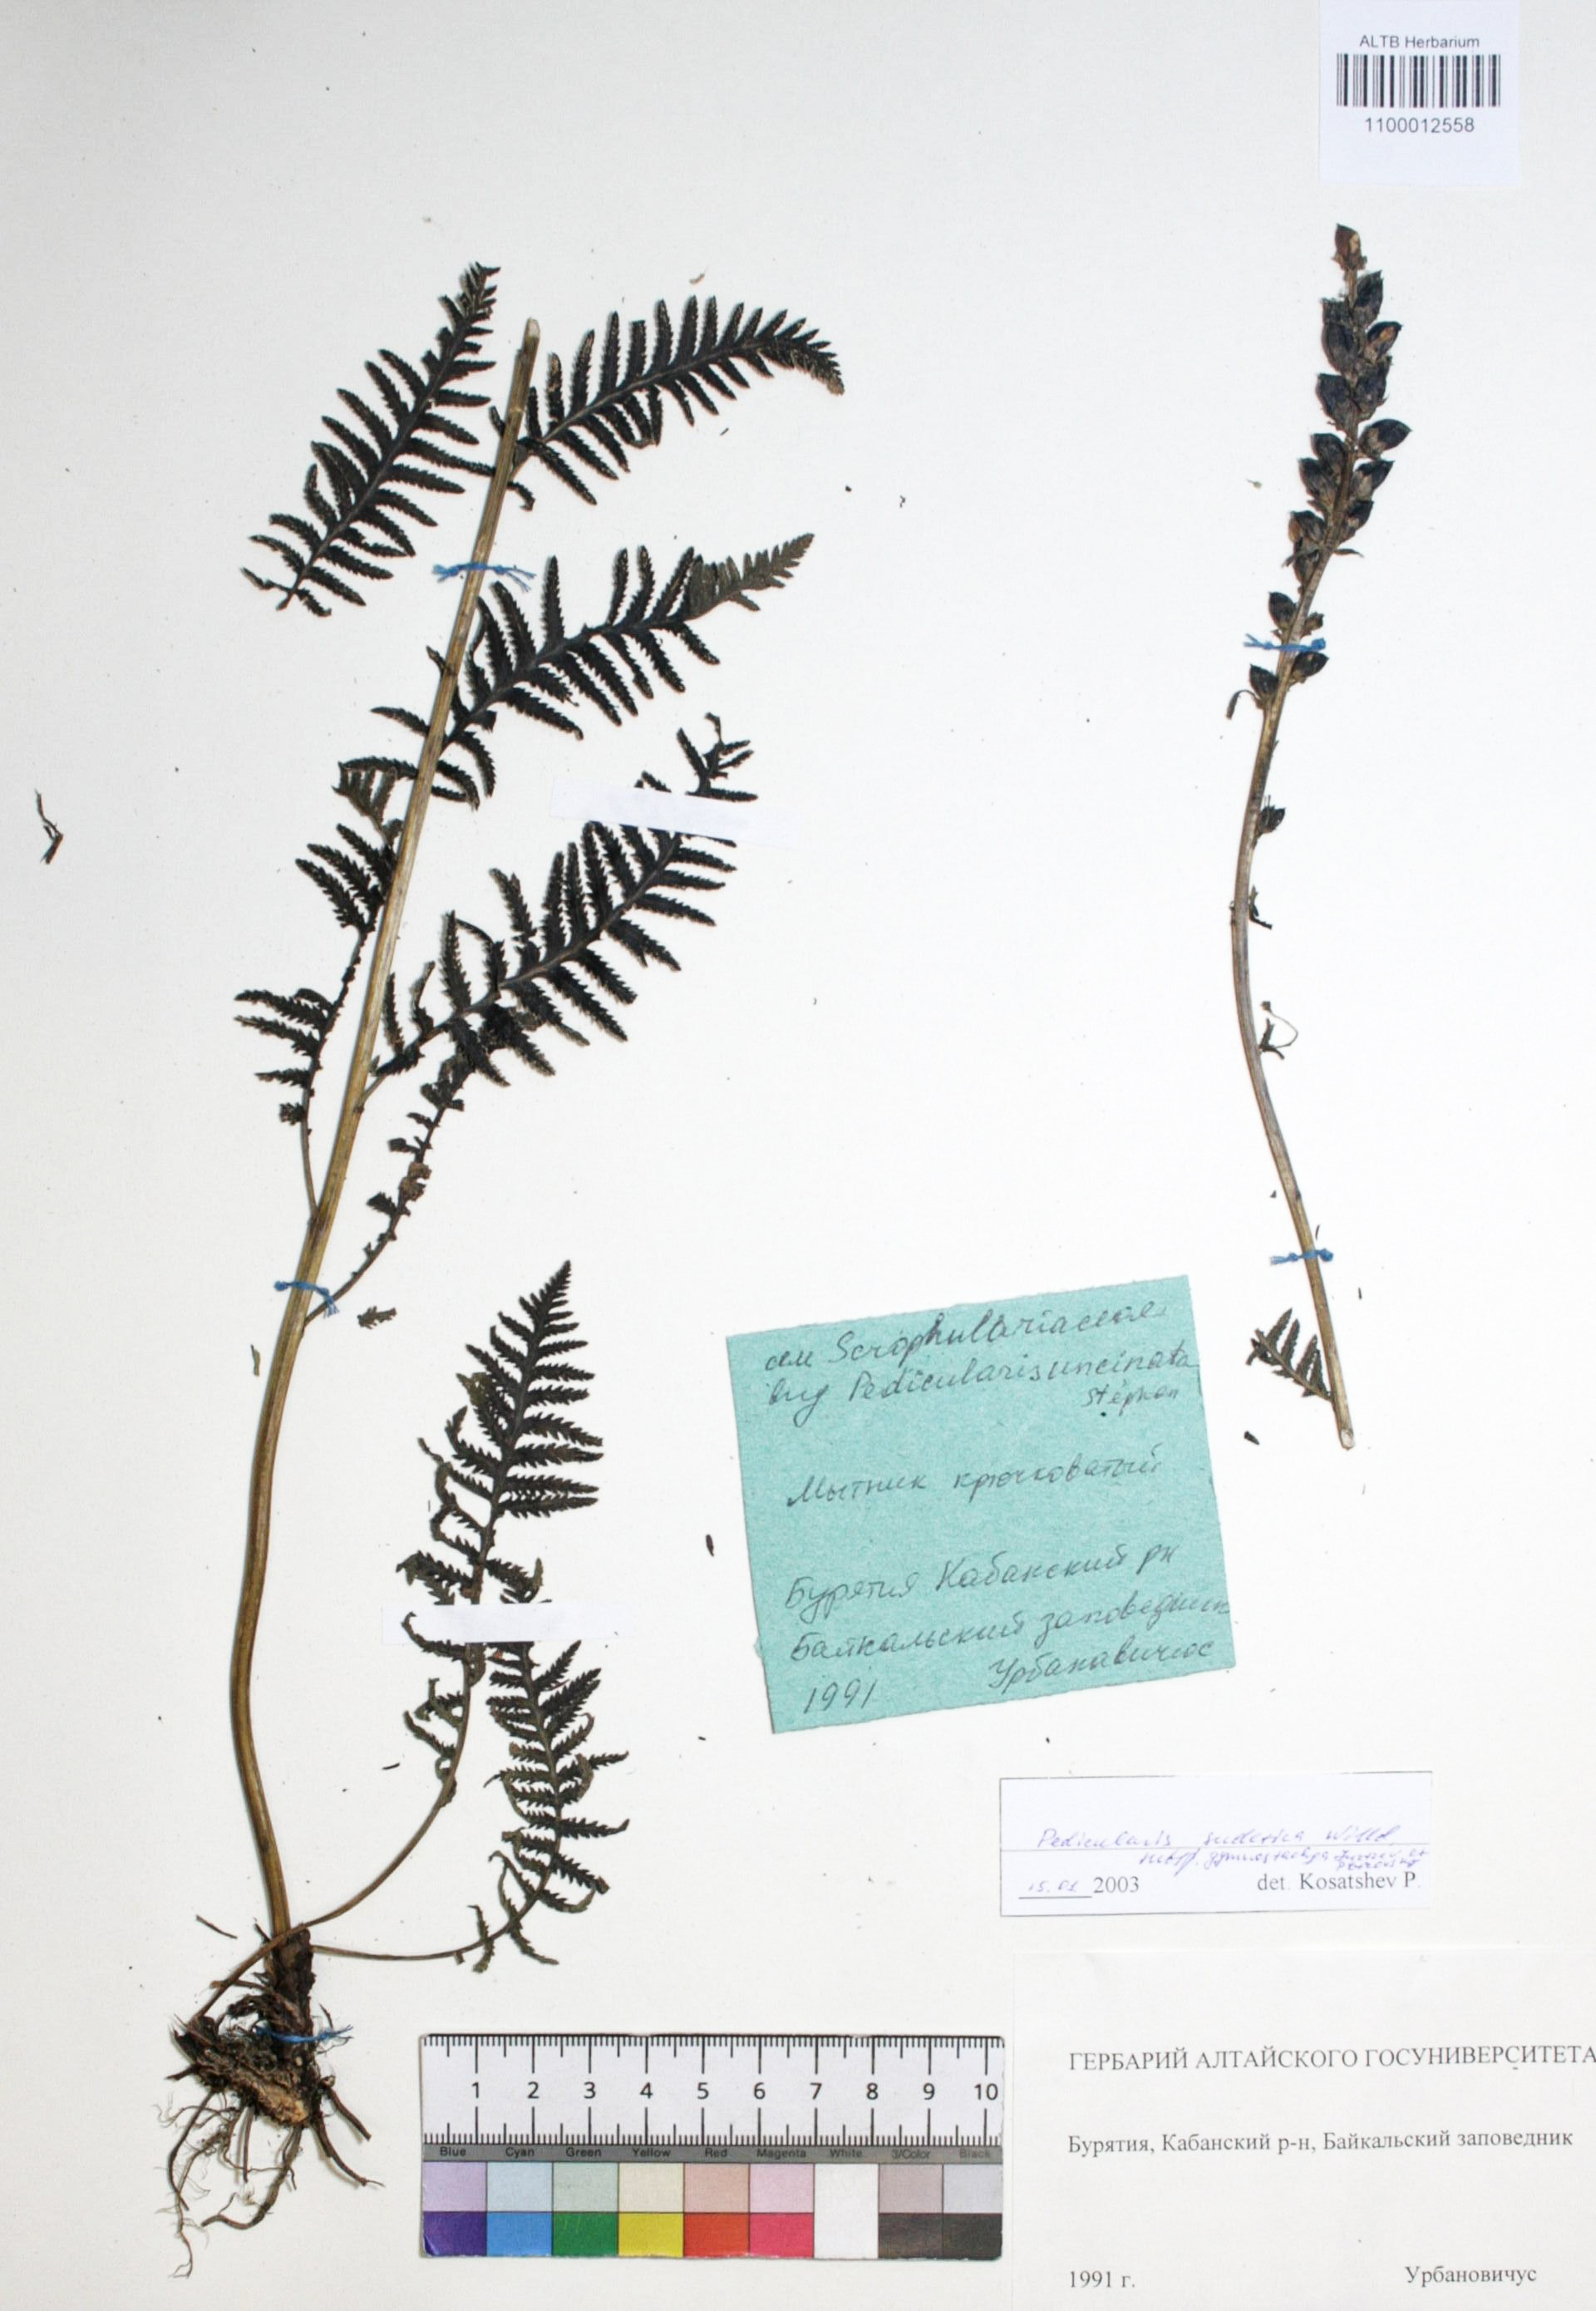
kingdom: Plantae
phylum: Tracheophyta
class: Magnoliopsida
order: Lamiales
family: Orobanchaceae
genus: Pedicularis
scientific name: Pedicularis gymnostachya
